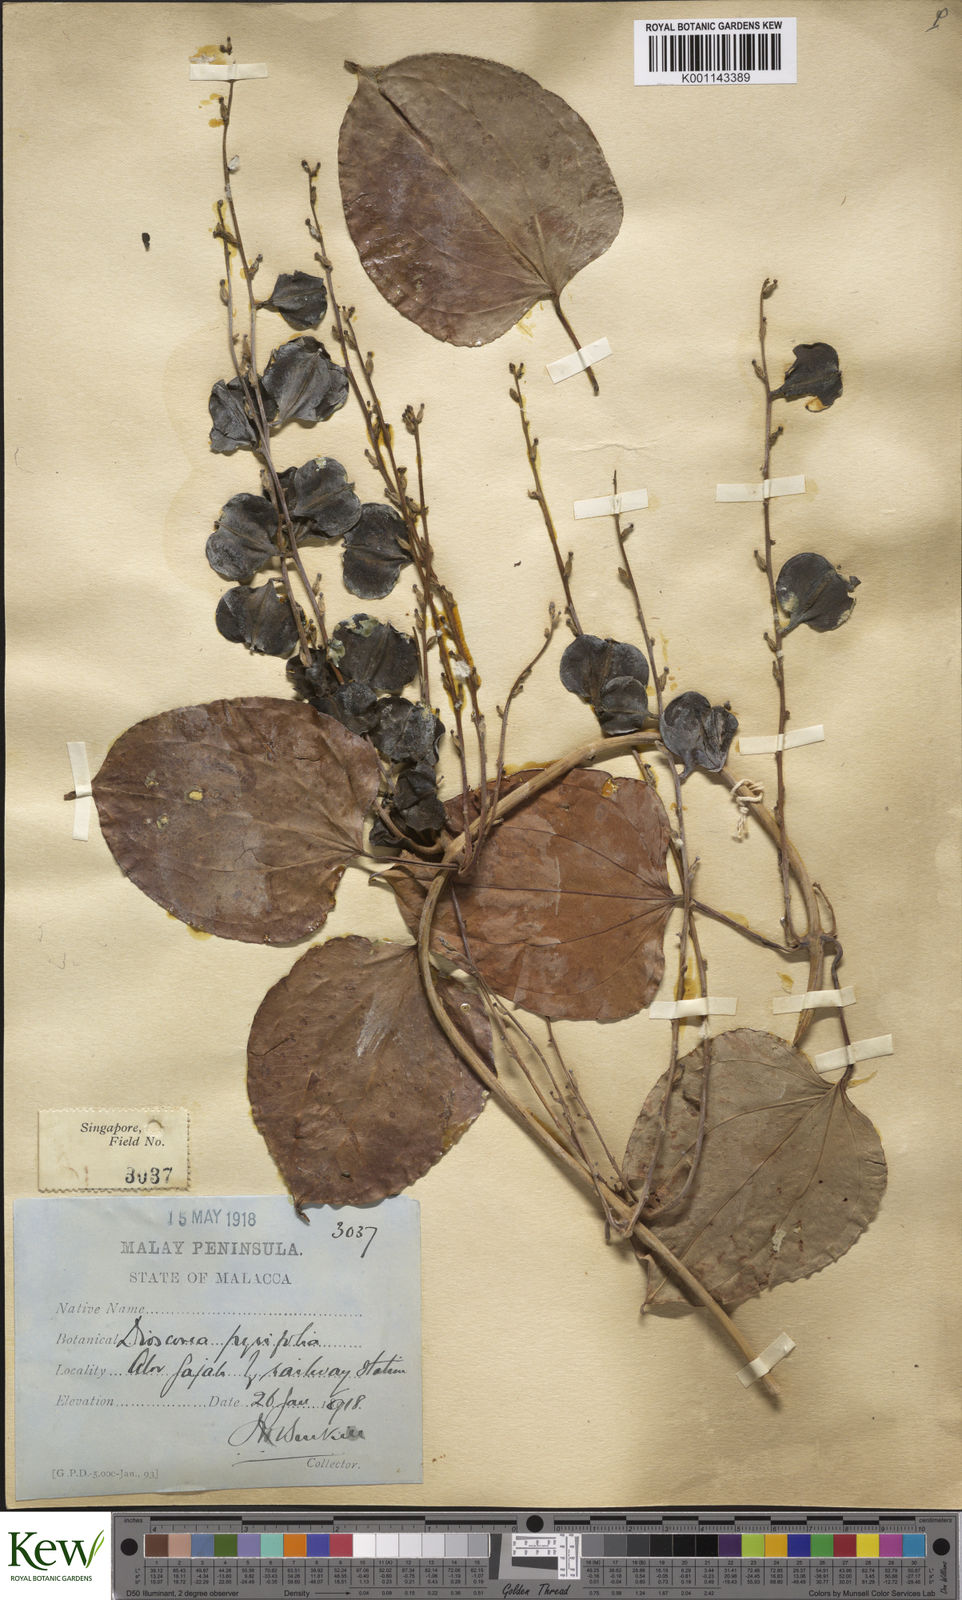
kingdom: Plantae
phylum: Tracheophyta
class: Liliopsida
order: Dioscoreales
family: Dioscoreaceae
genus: Dioscorea
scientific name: Dioscorea pyrifolia
